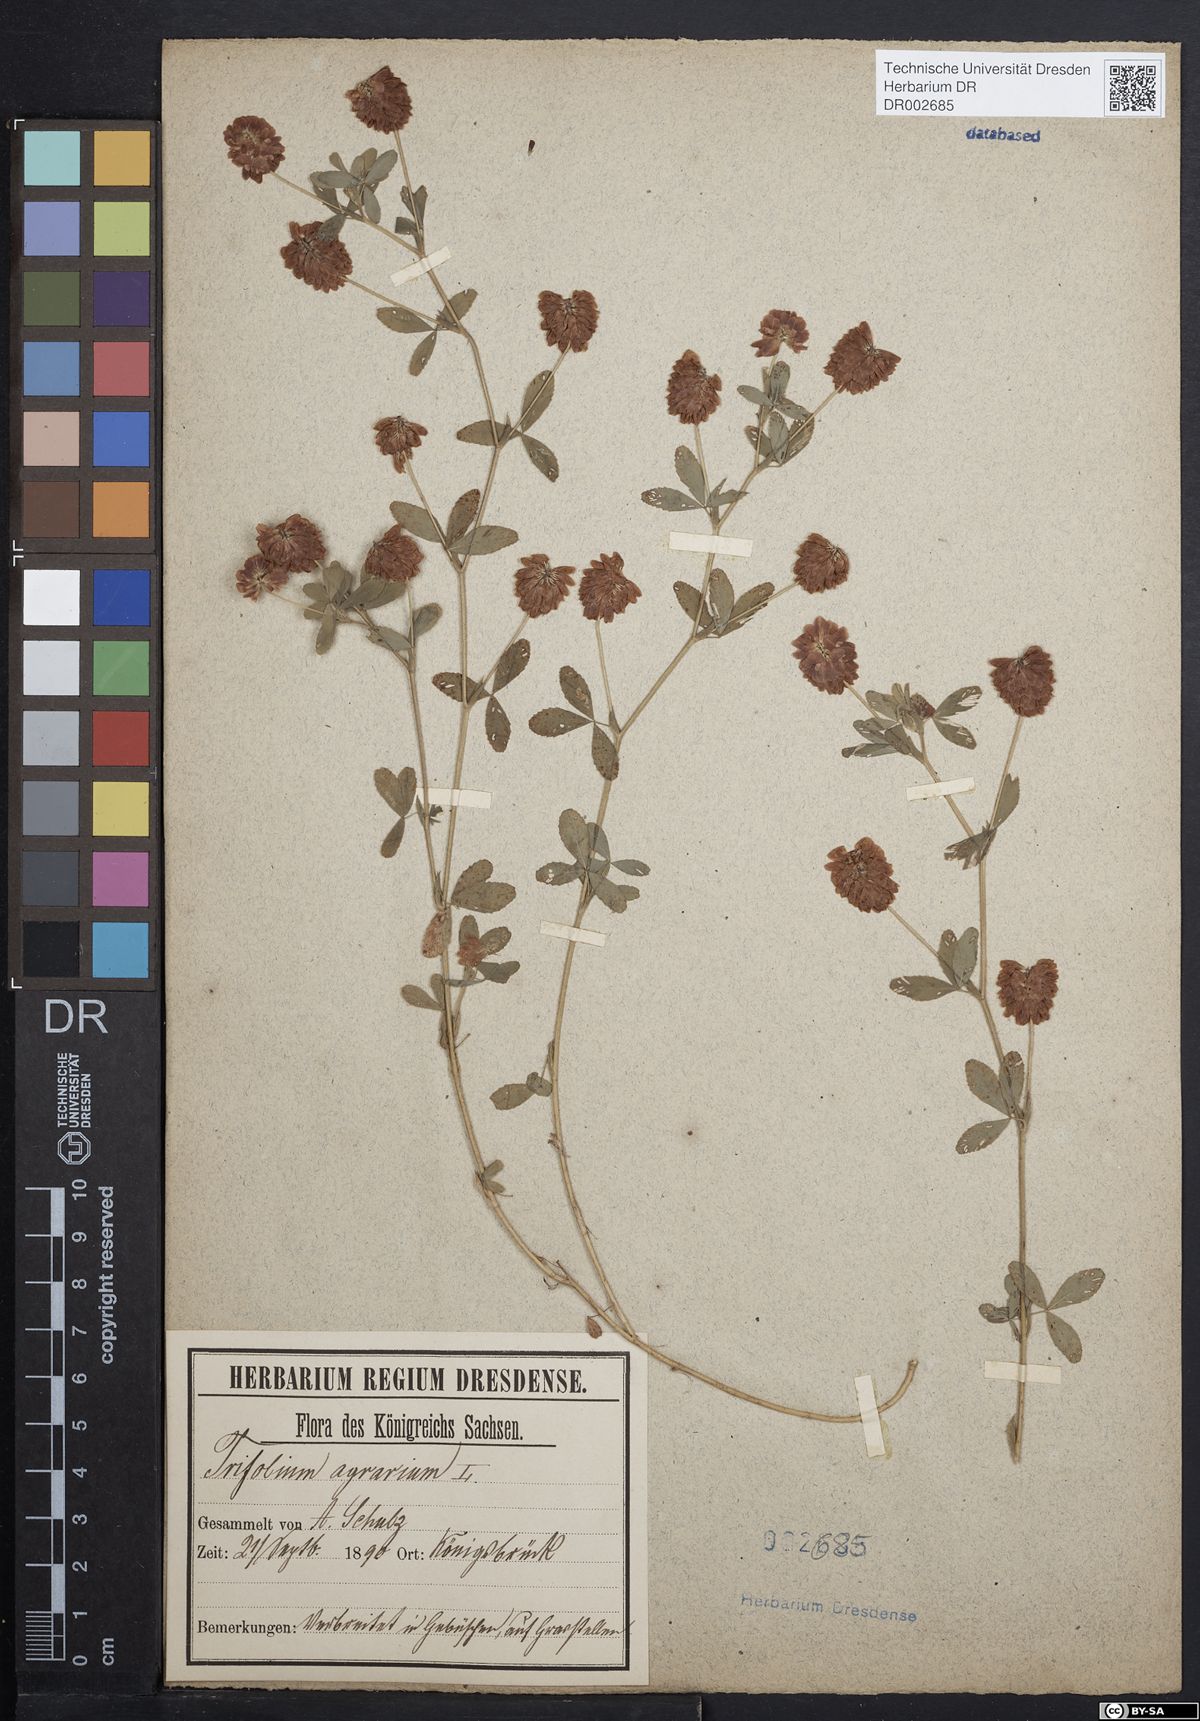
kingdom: Plantae
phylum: Tracheophyta
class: Magnoliopsida
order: Fabales
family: Fabaceae
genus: Trifolium
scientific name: Trifolium aureum
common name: Golden clover
